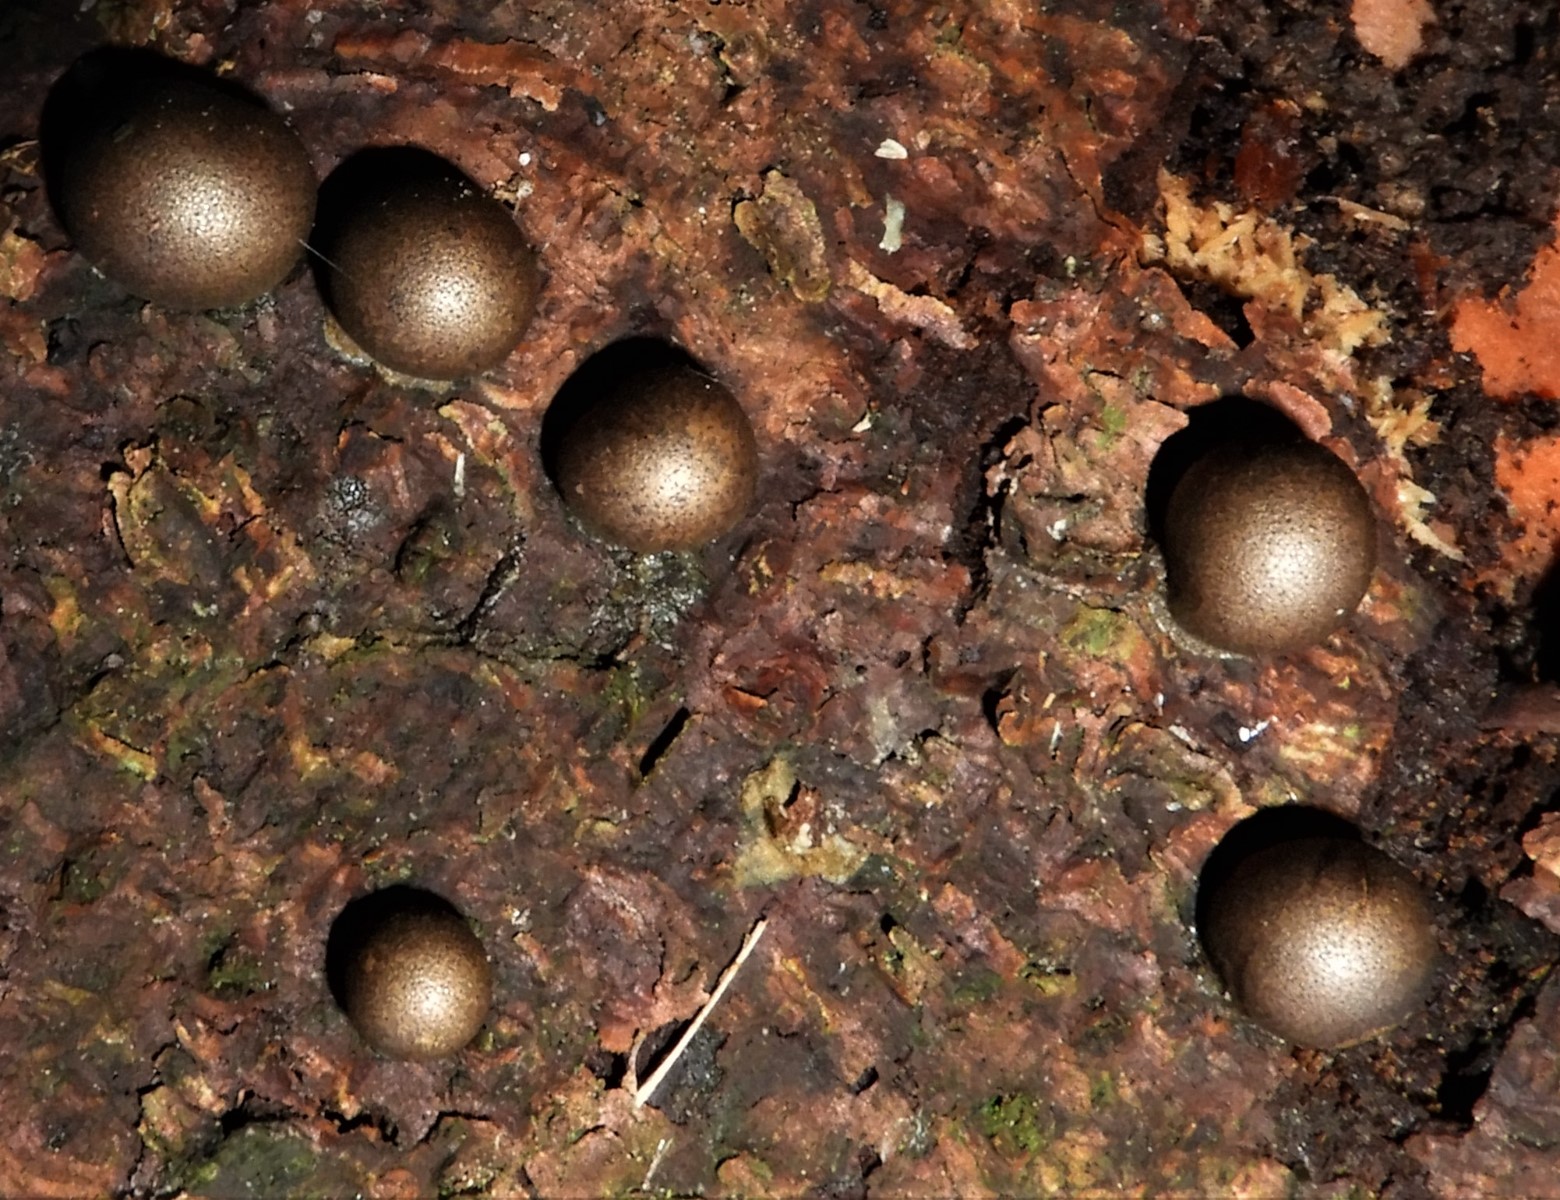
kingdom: Protozoa
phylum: Mycetozoa
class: Myxomycetes
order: Cribrariales
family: Tubiferaceae
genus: Lycogala
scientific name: Lycogala epidendrum
